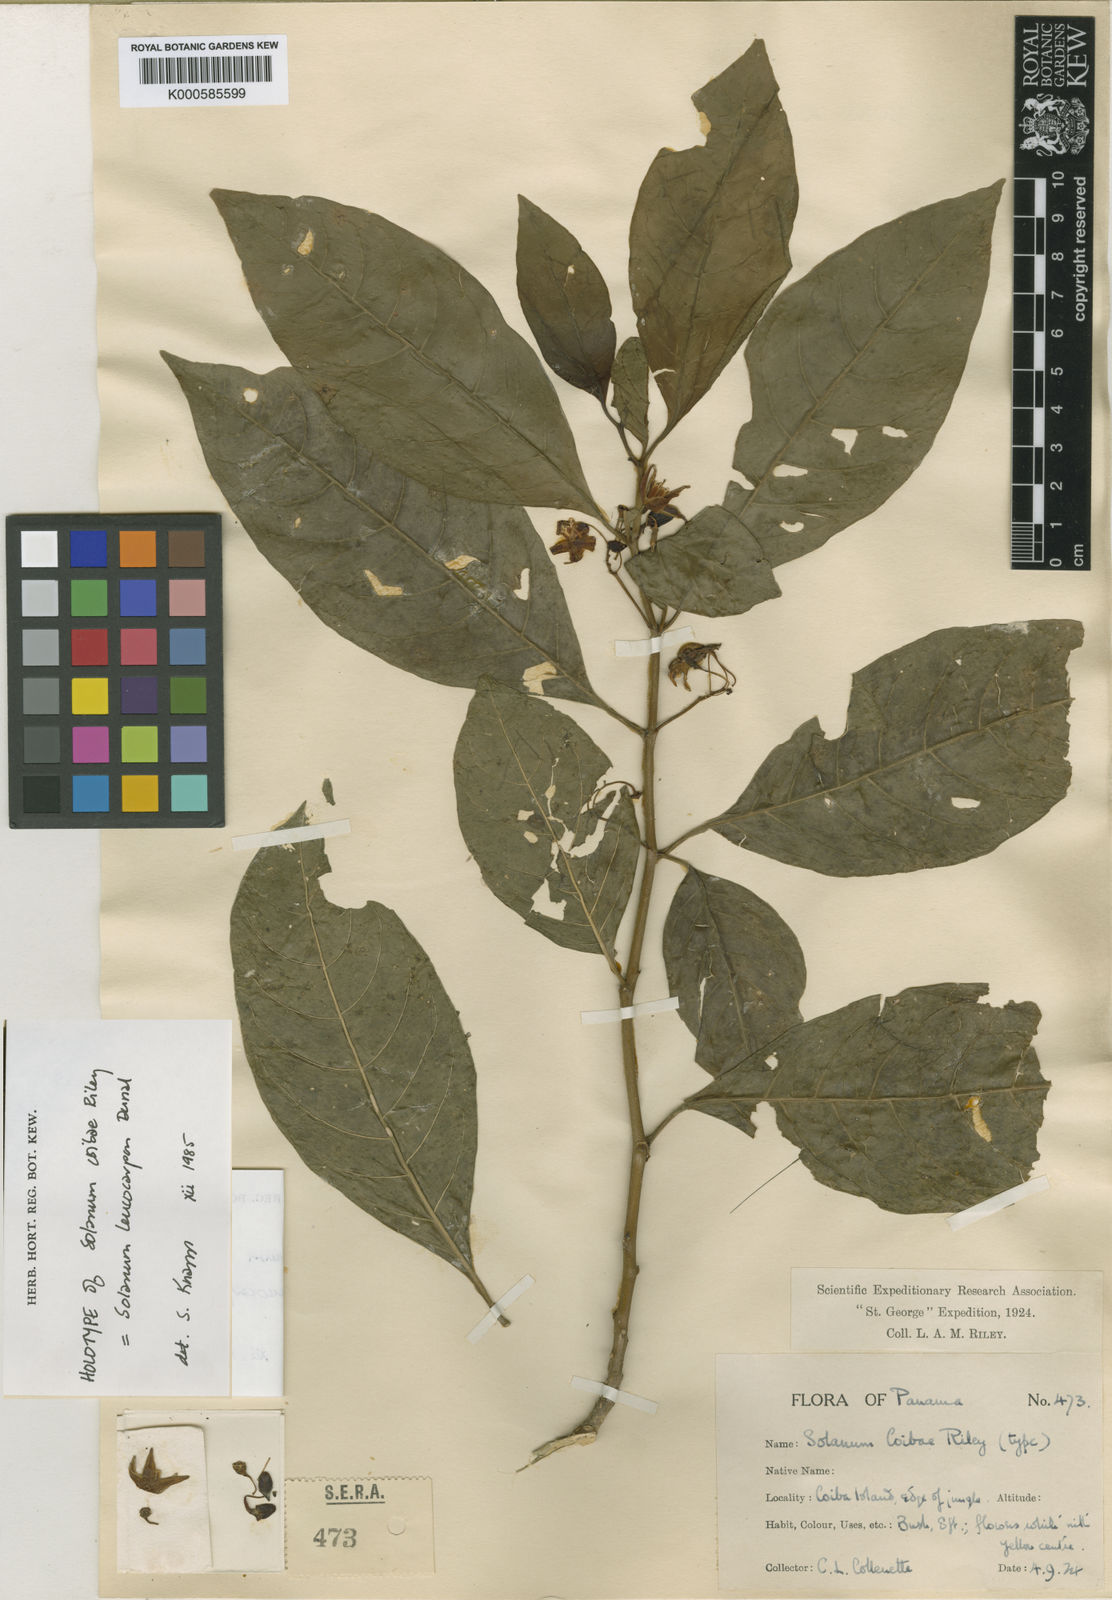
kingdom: Plantae
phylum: Tracheophyta
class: Magnoliopsida
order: Solanales
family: Solanaceae
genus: Solanum
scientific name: Solanum leucocarpon
